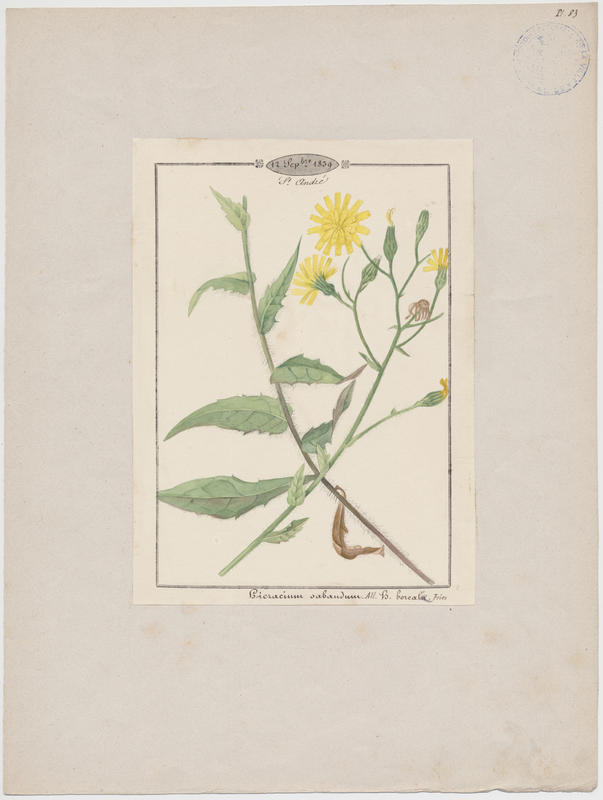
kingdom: Plantae
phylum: Tracheophyta
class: Magnoliopsida
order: Asterales
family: Asteraceae
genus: Hieracium
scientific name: Hieracium sabaudum
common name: New england hawkweed
